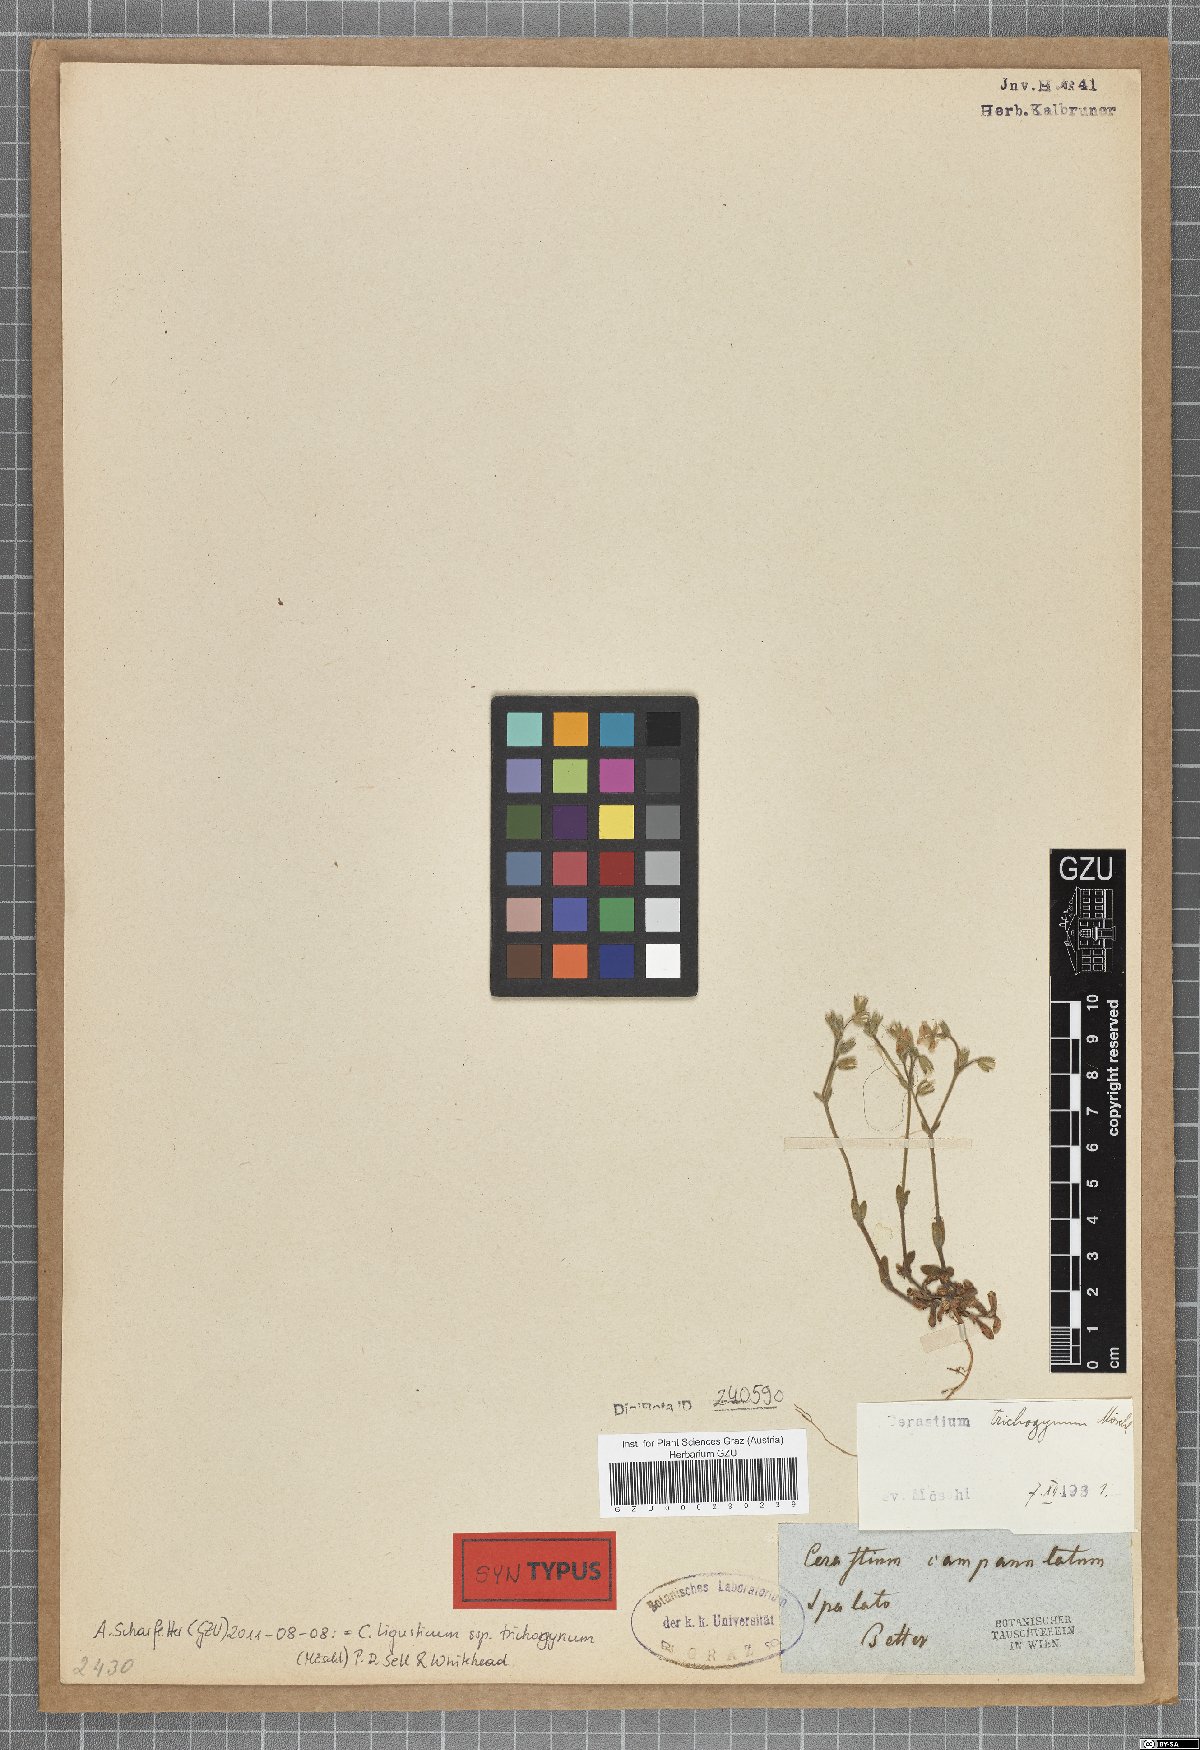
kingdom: Plantae
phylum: Tracheophyta
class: Magnoliopsida
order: Caryophyllales
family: Caryophyllaceae
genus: Cerastium
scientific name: Cerastium ligusticum
